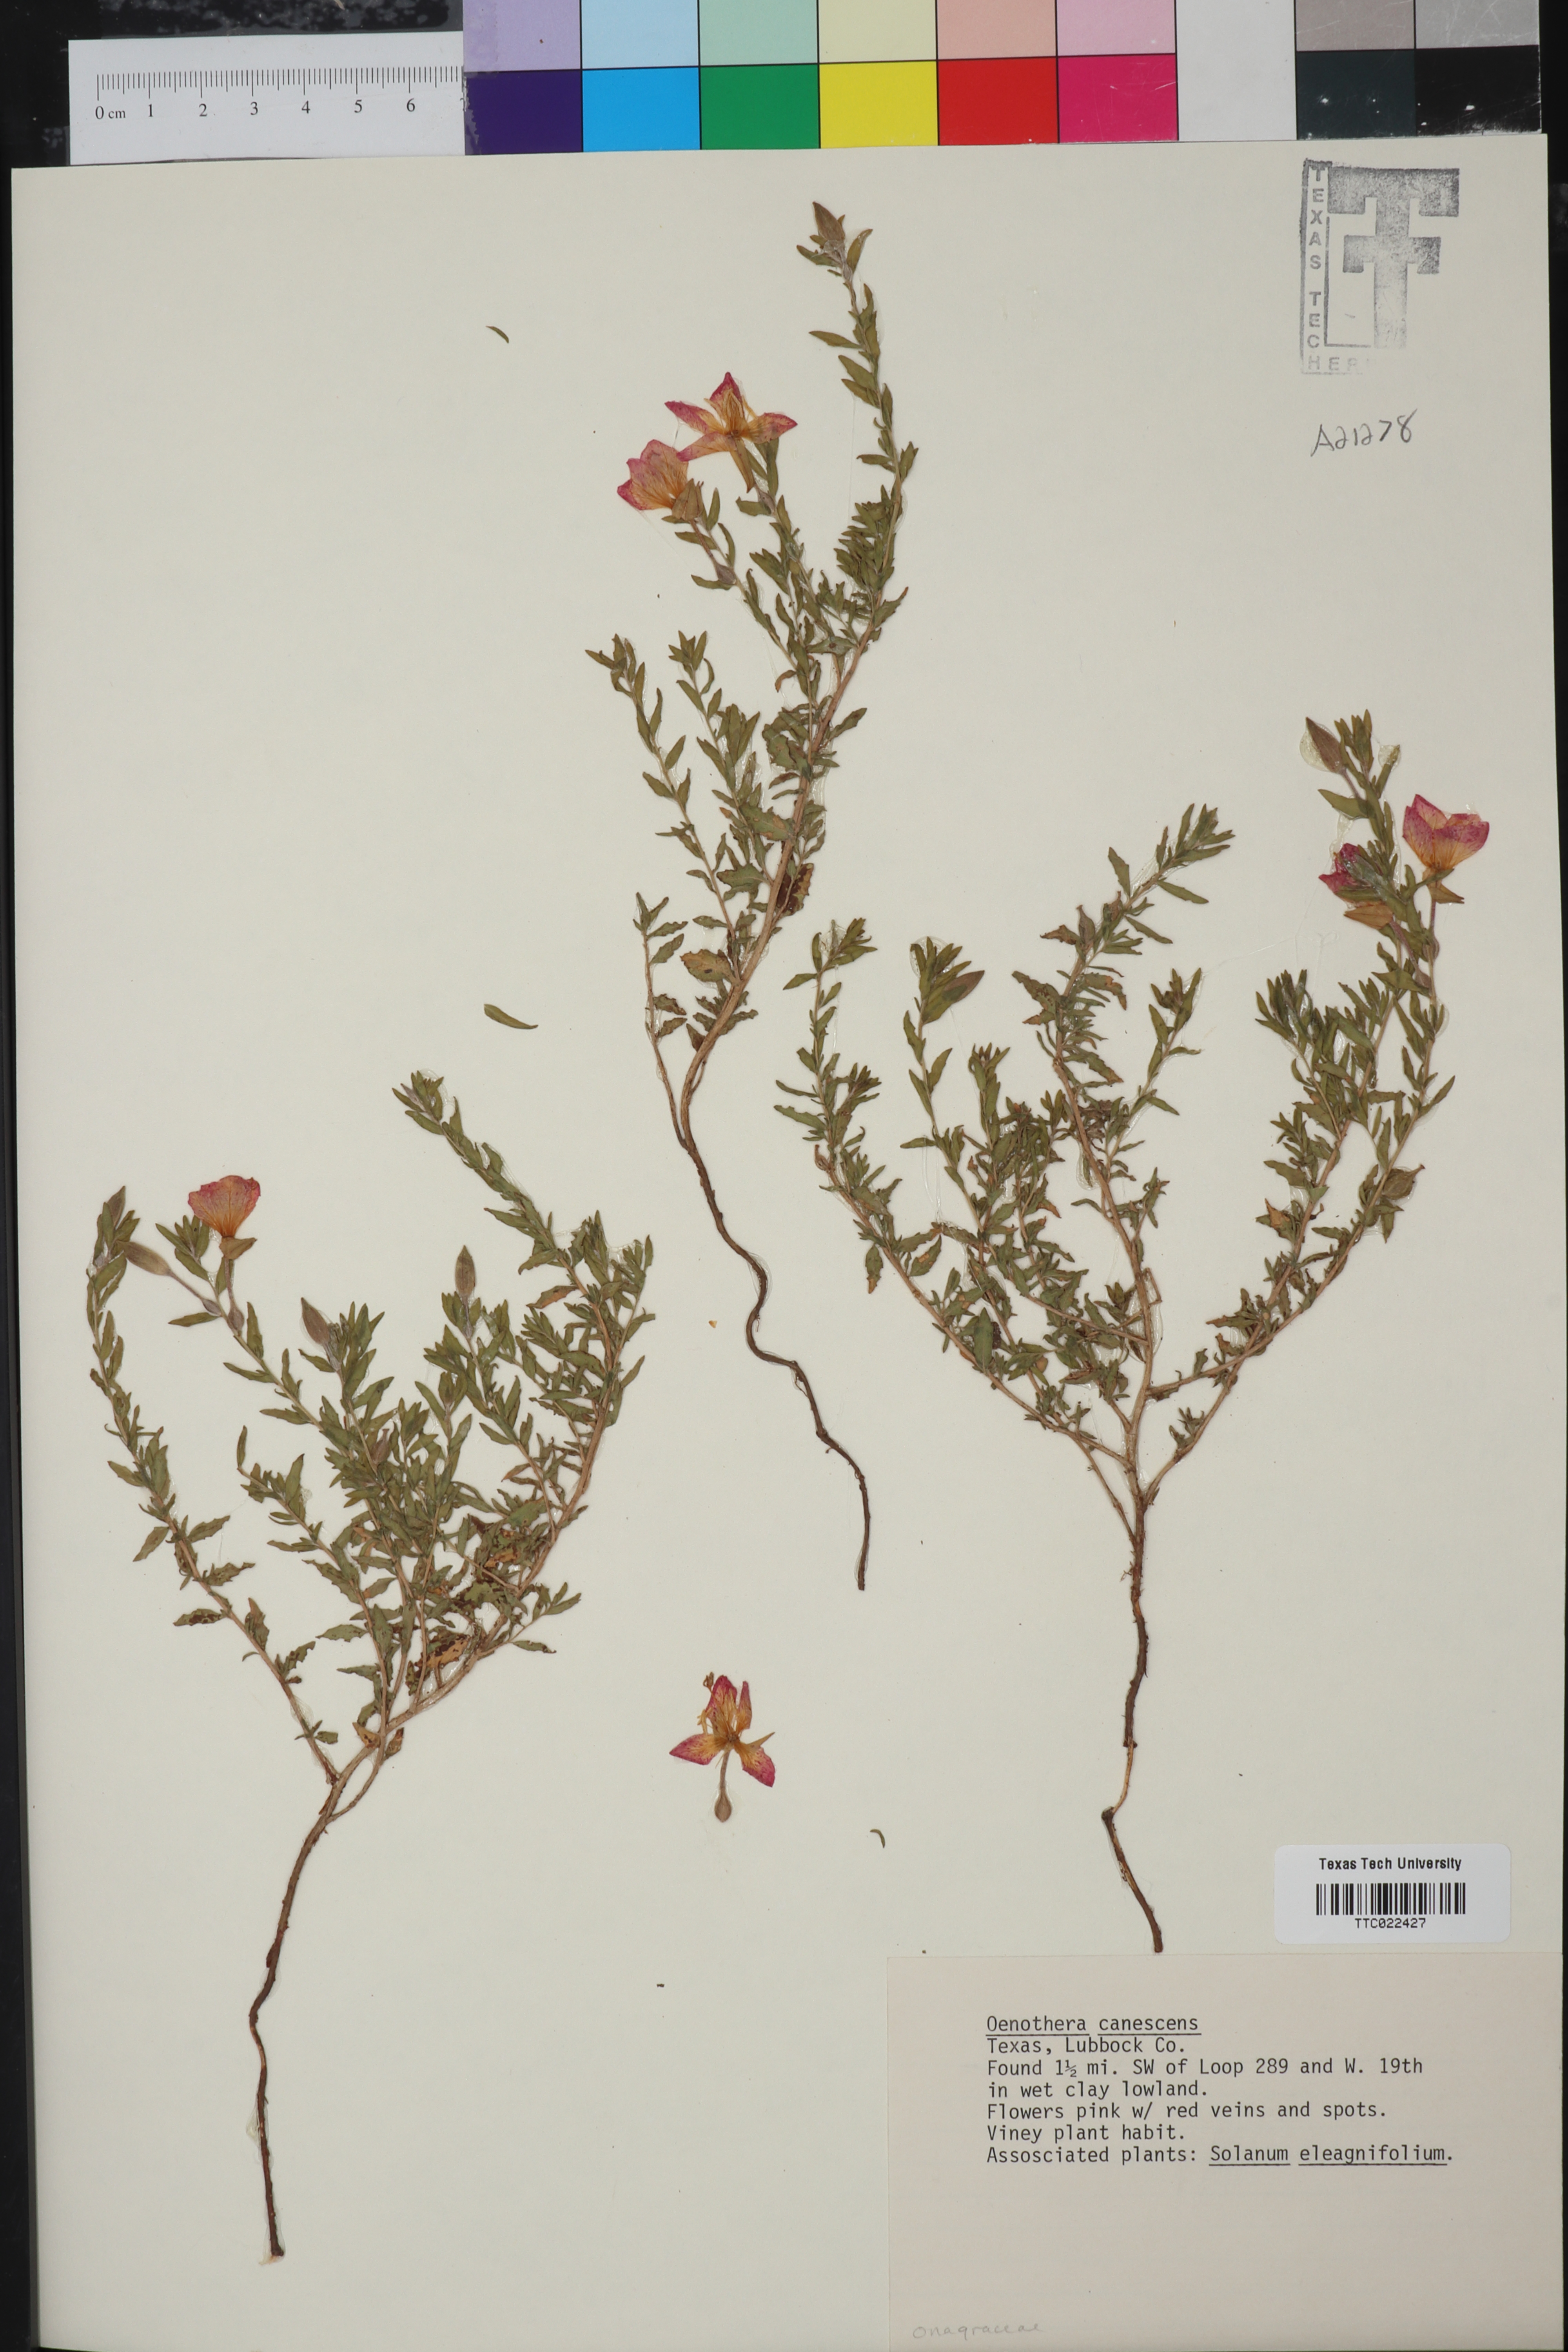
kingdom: Plantae
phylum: Tracheophyta
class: Magnoliopsida
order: Myrtales
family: Onagraceae
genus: Oenothera
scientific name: Oenothera canescens
